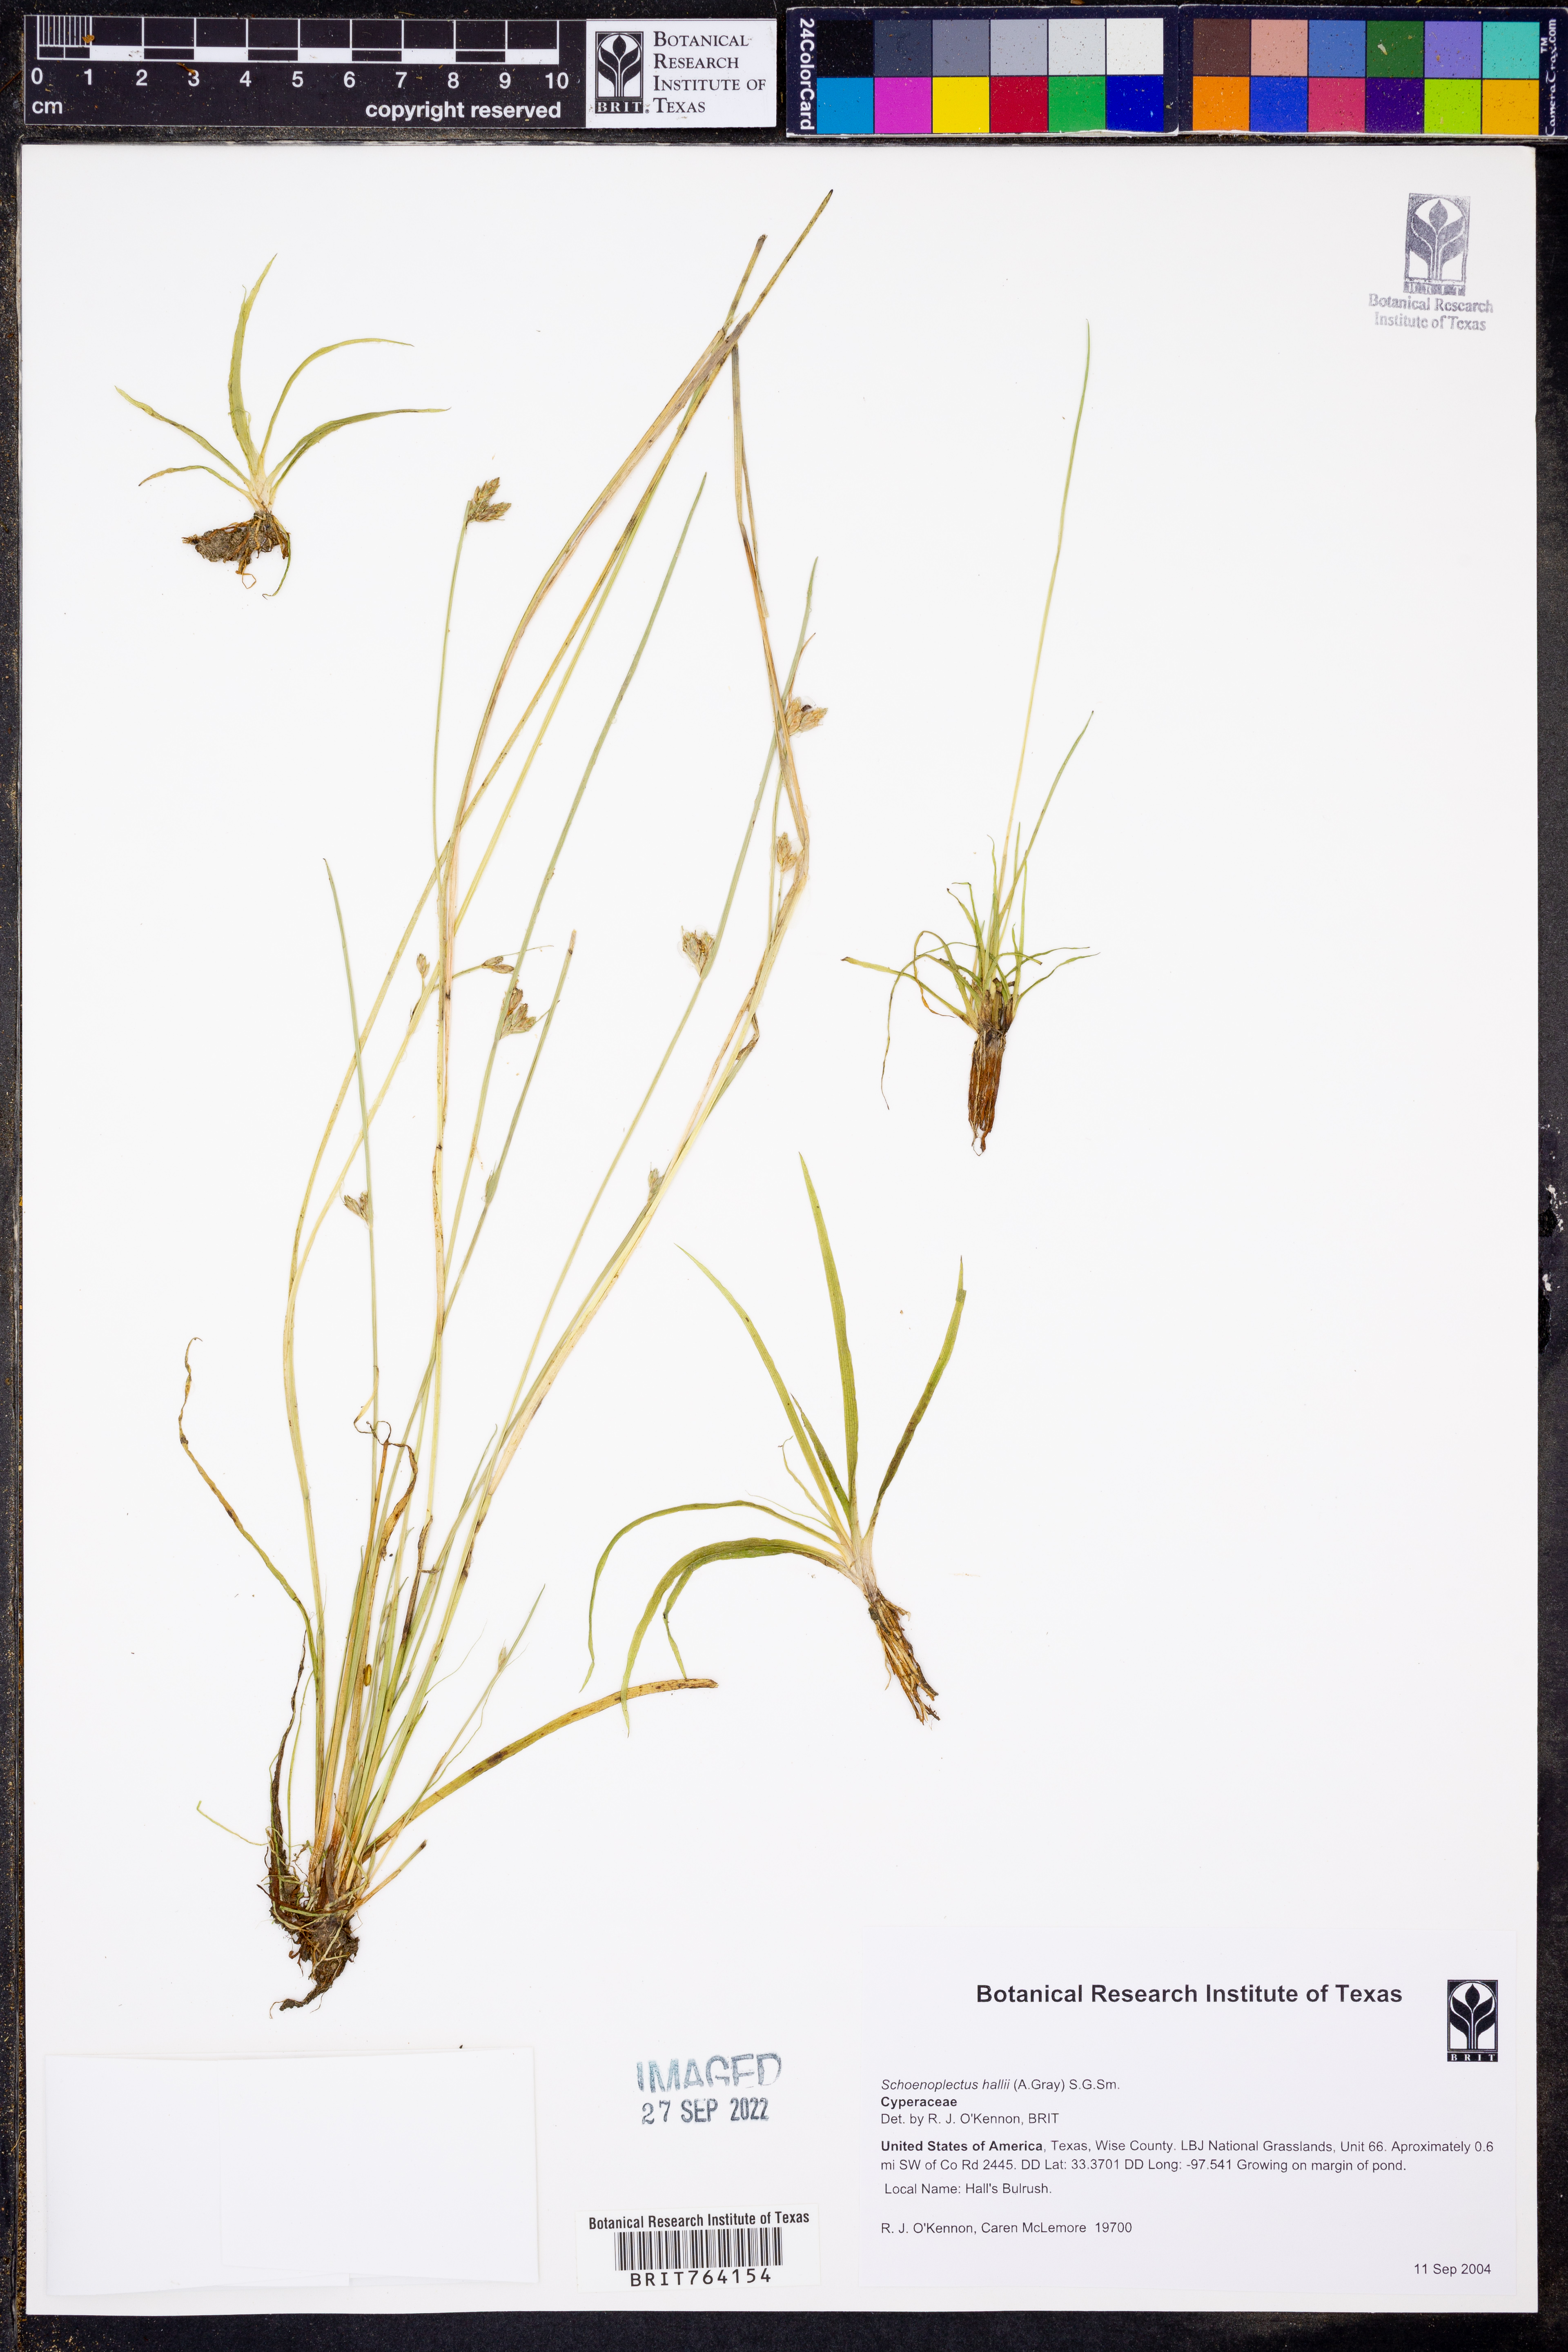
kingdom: Plantae
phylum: Tracheophyta
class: Liliopsida
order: Poales
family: Cyperaceae
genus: Schoenoplectiella
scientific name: Schoenoplectiella hallii
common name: Hall's bullrush
